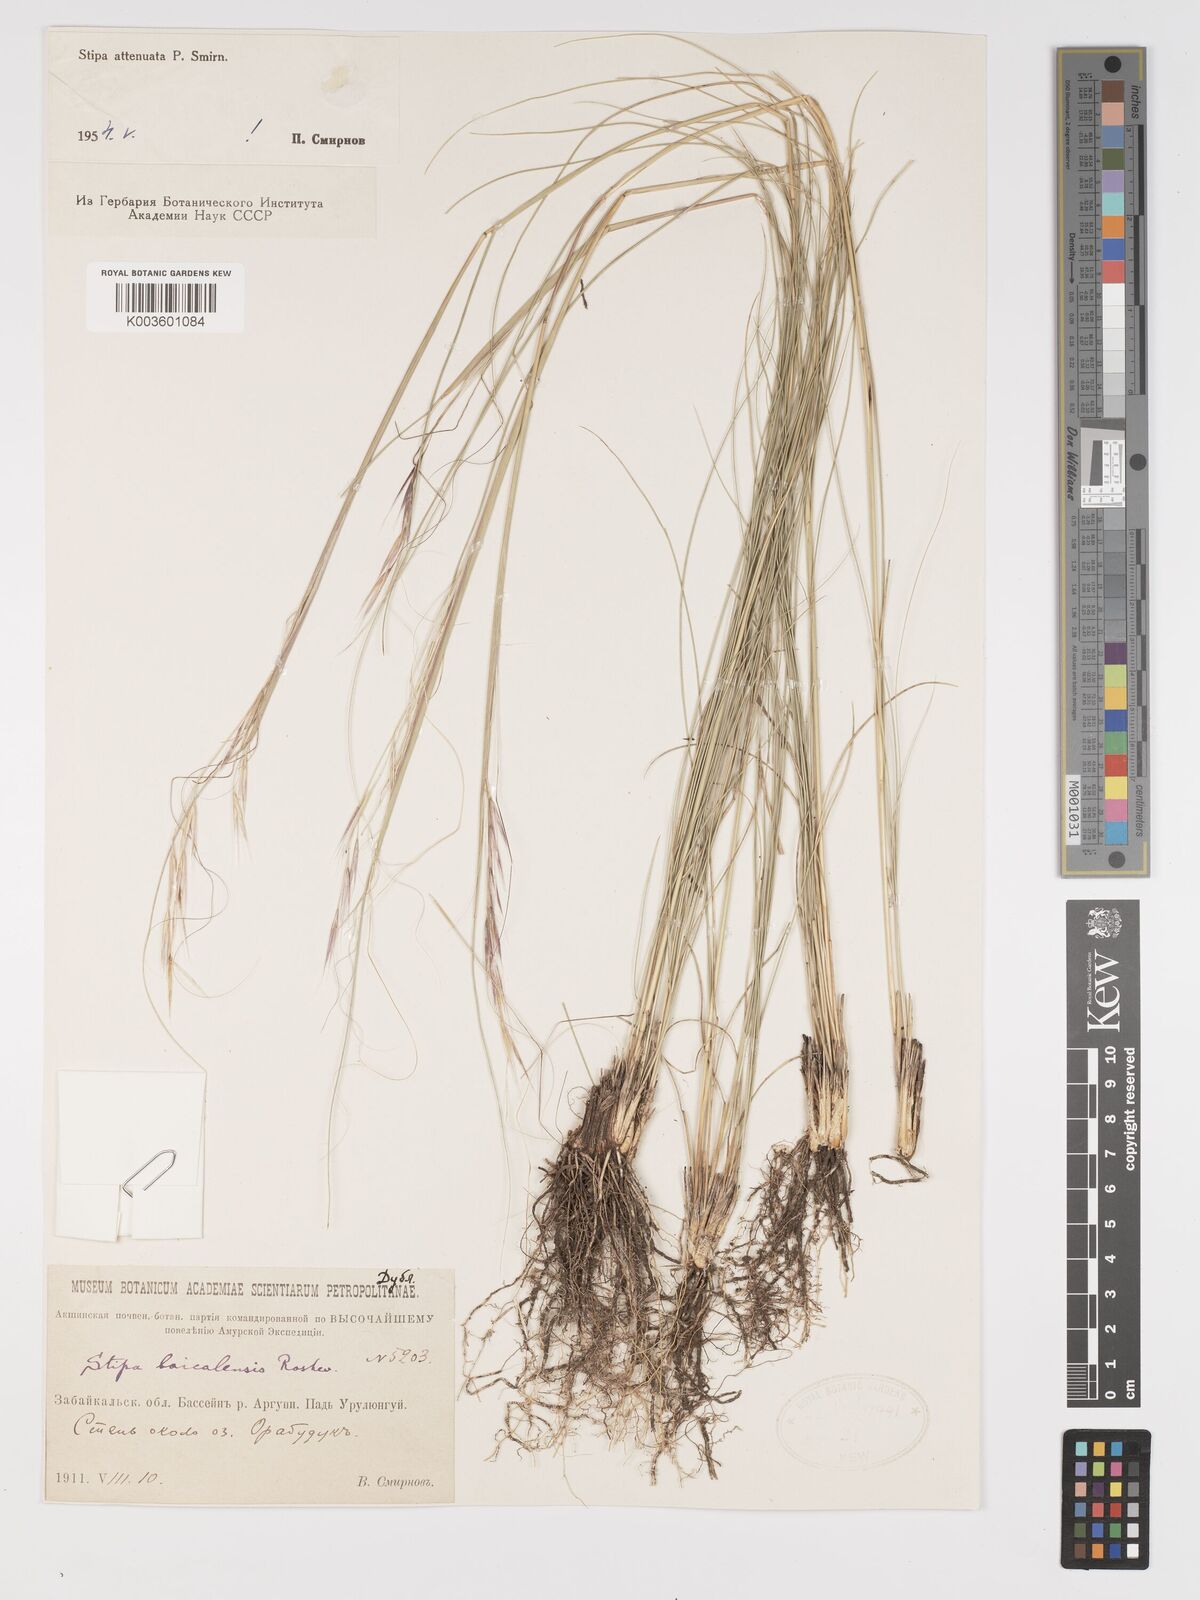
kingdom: Plantae
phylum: Tracheophyta
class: Liliopsida
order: Poales
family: Poaceae
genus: Stipa
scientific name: Stipa baicalensis
